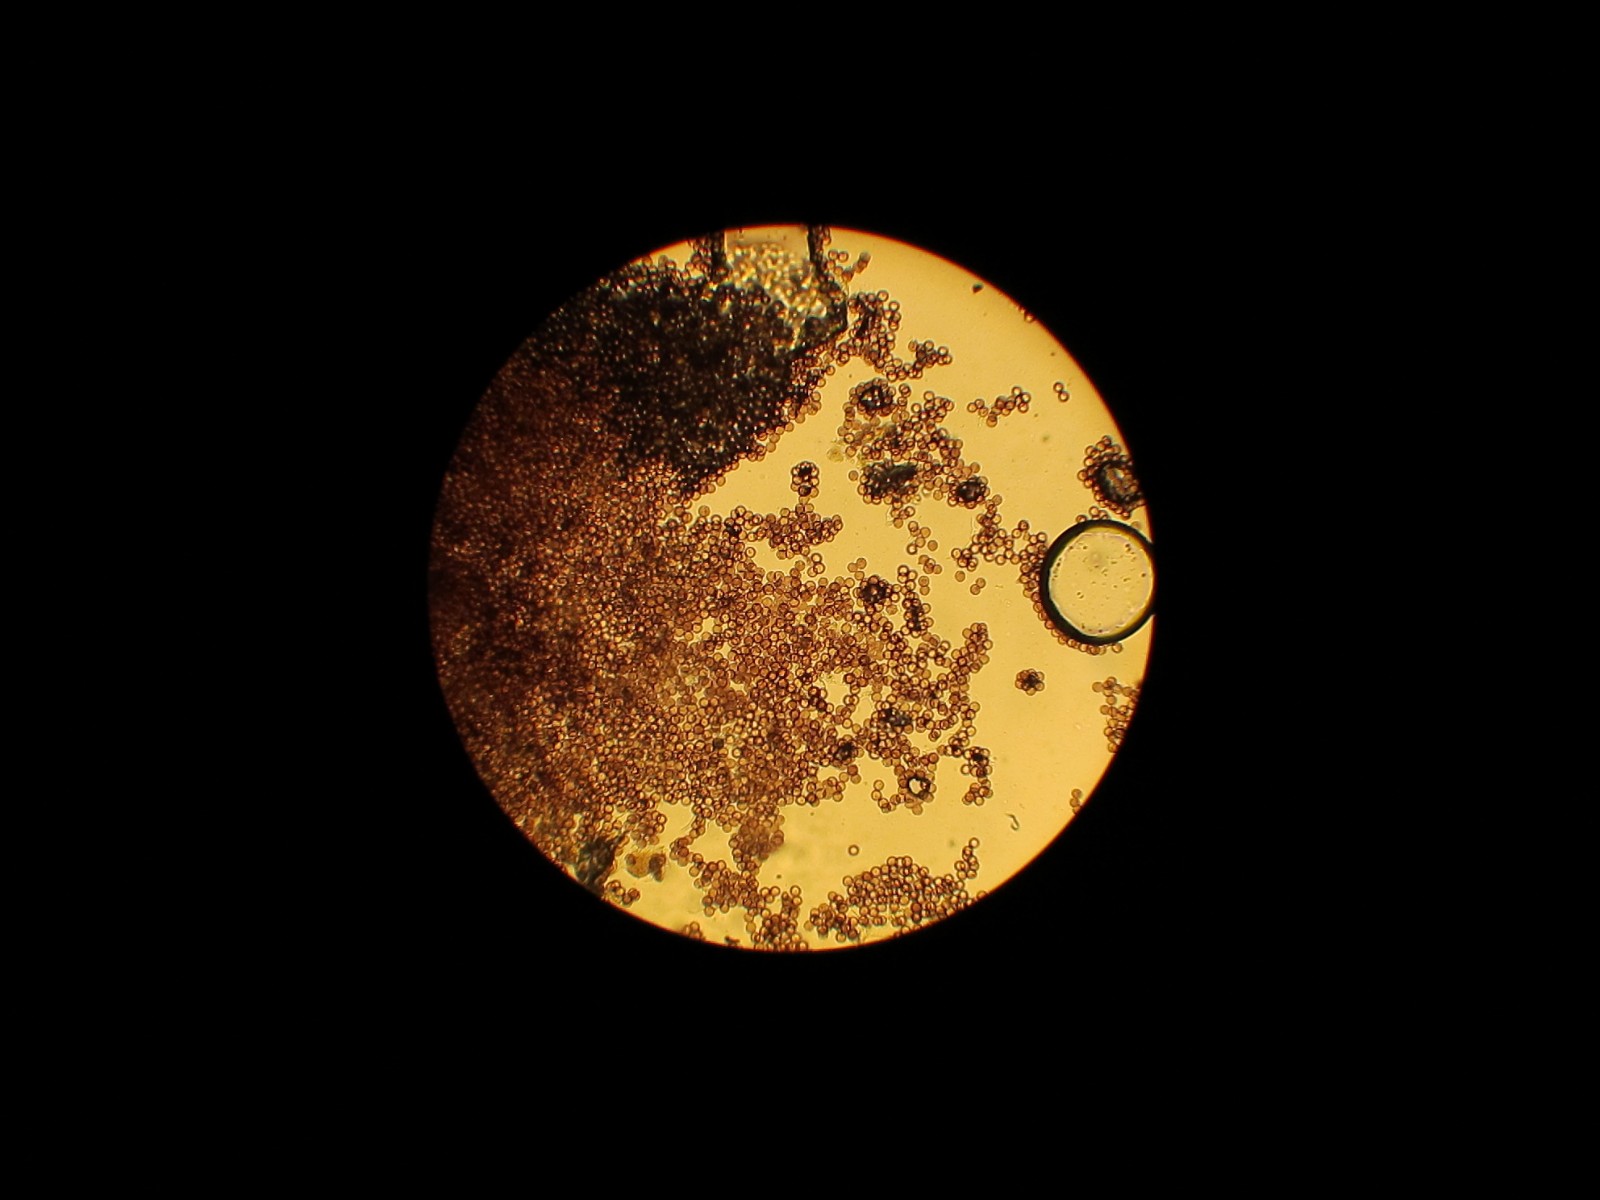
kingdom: Protozoa
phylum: Mycetozoa
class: Myxomycetes
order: Physarales
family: Physaraceae
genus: Physarum
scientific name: Physarum album
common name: nikkende støvknop
